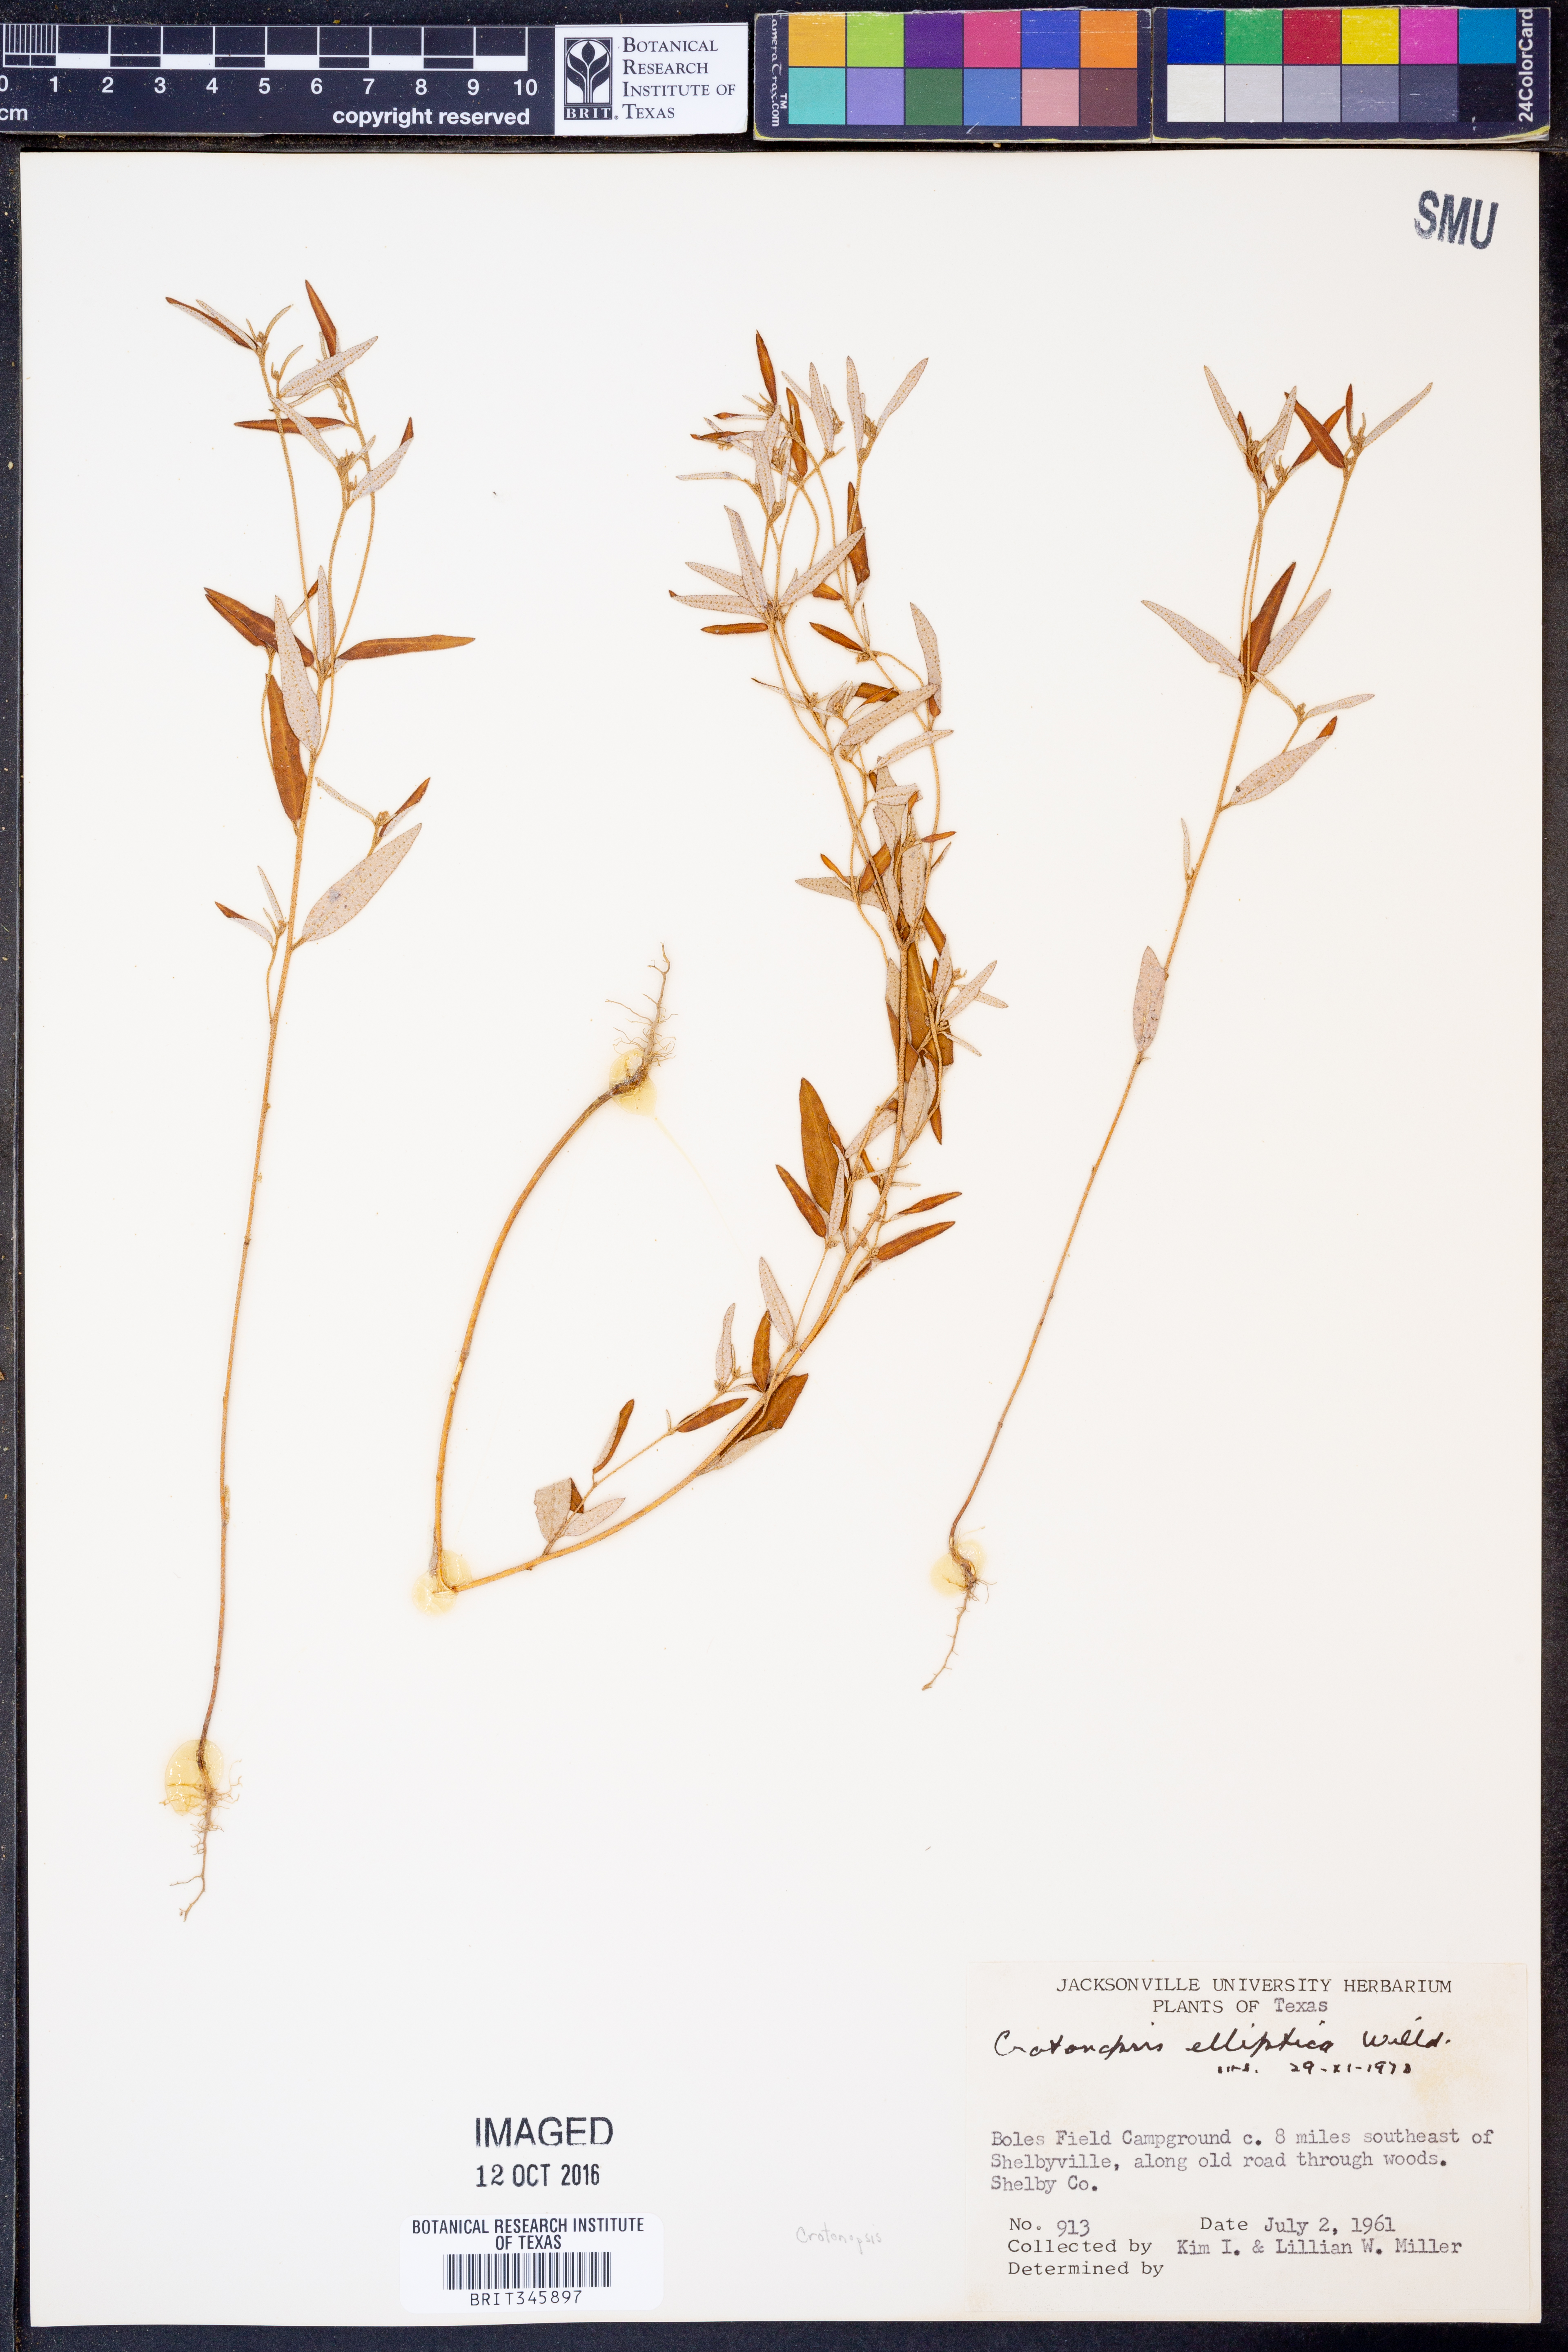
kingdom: Plantae
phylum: Tracheophyta
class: Magnoliopsida
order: Malpighiales
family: Euphorbiaceae
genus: Croton
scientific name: Croton michauxii
